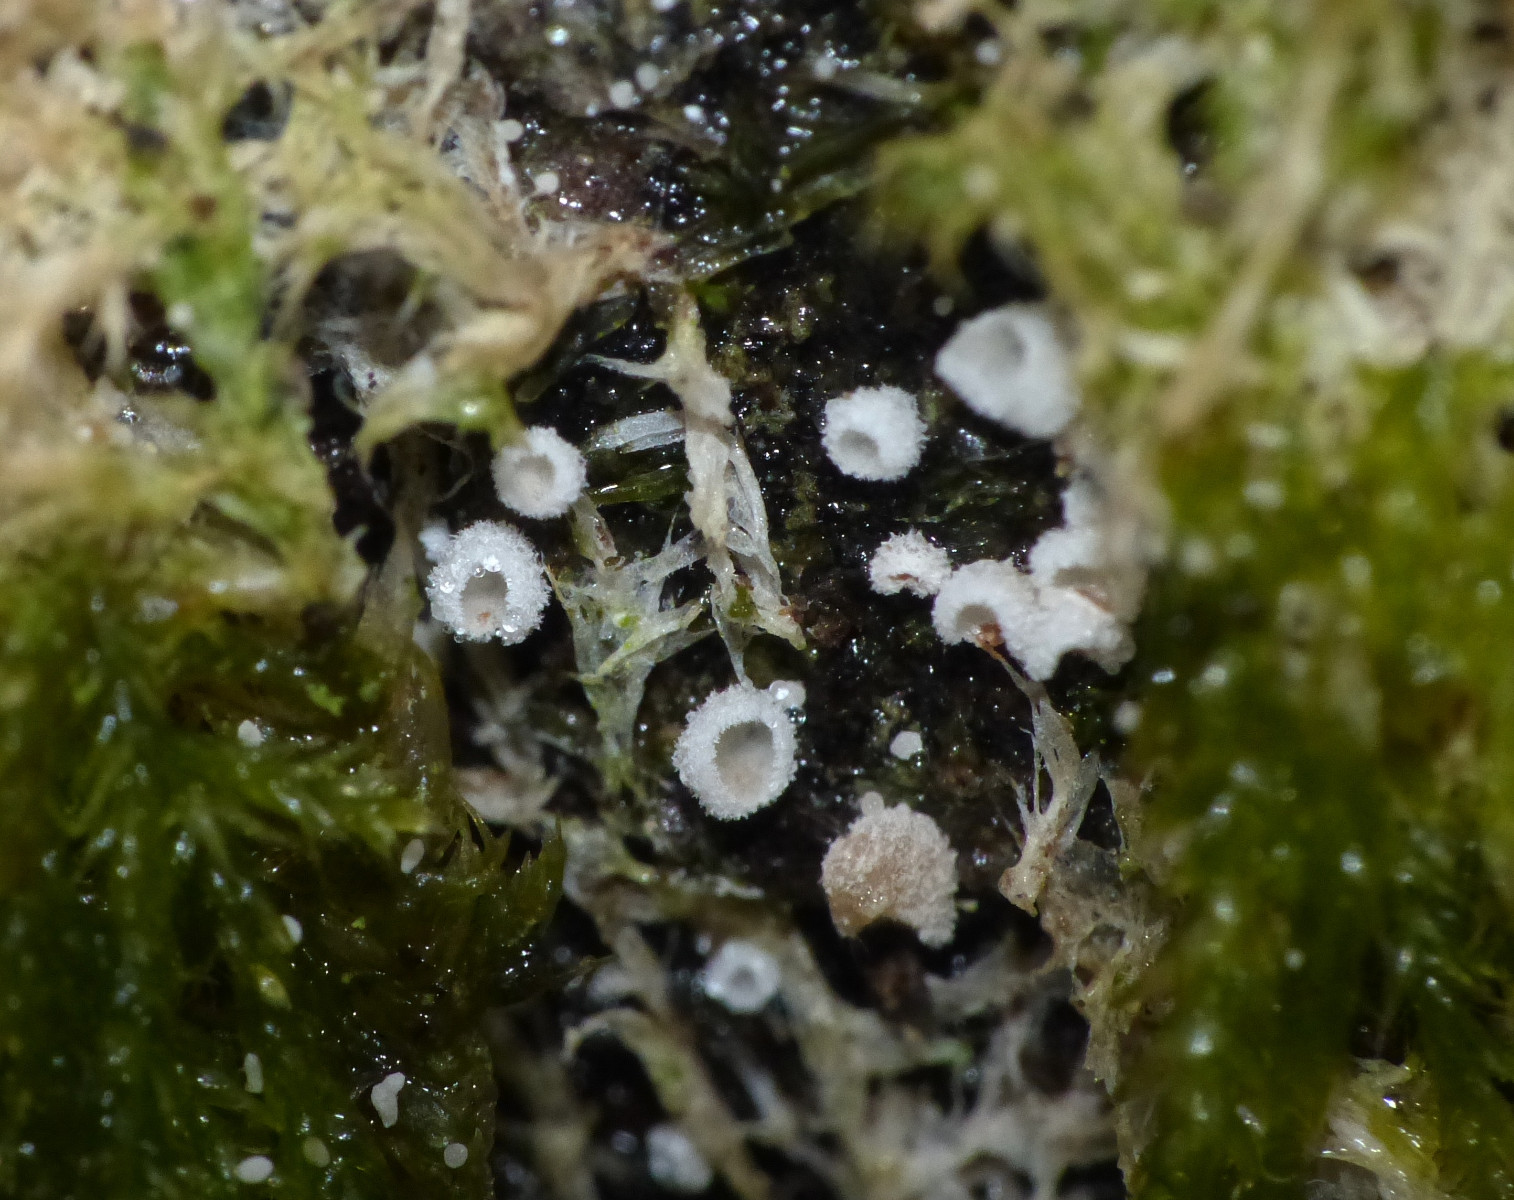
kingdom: Fungi
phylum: Basidiomycota
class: Agaricomycetes
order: Agaricales
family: Chromocyphellaceae
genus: Chromocyphella
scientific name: Chromocyphella muscicola
